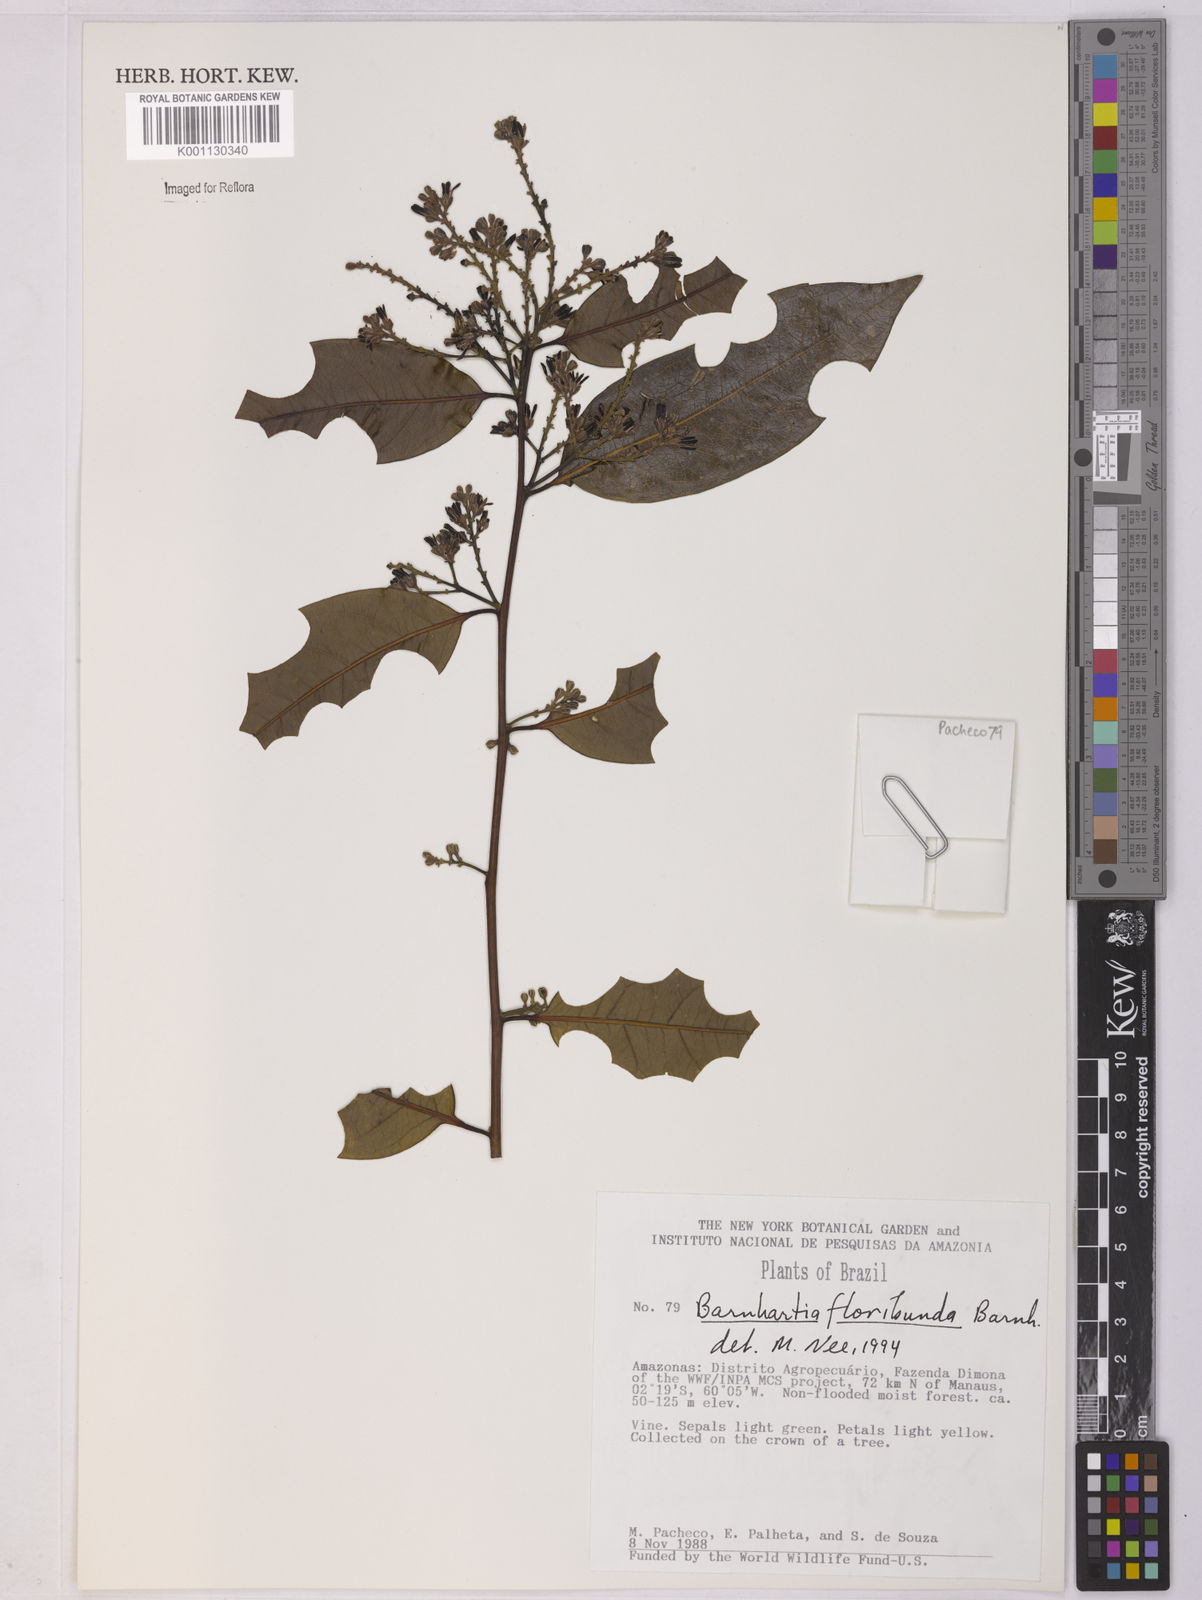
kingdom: Plantae
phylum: Tracheophyta
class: Magnoliopsida
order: Fabales
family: Polygalaceae
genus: Barnhartia
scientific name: Barnhartia floribunda
